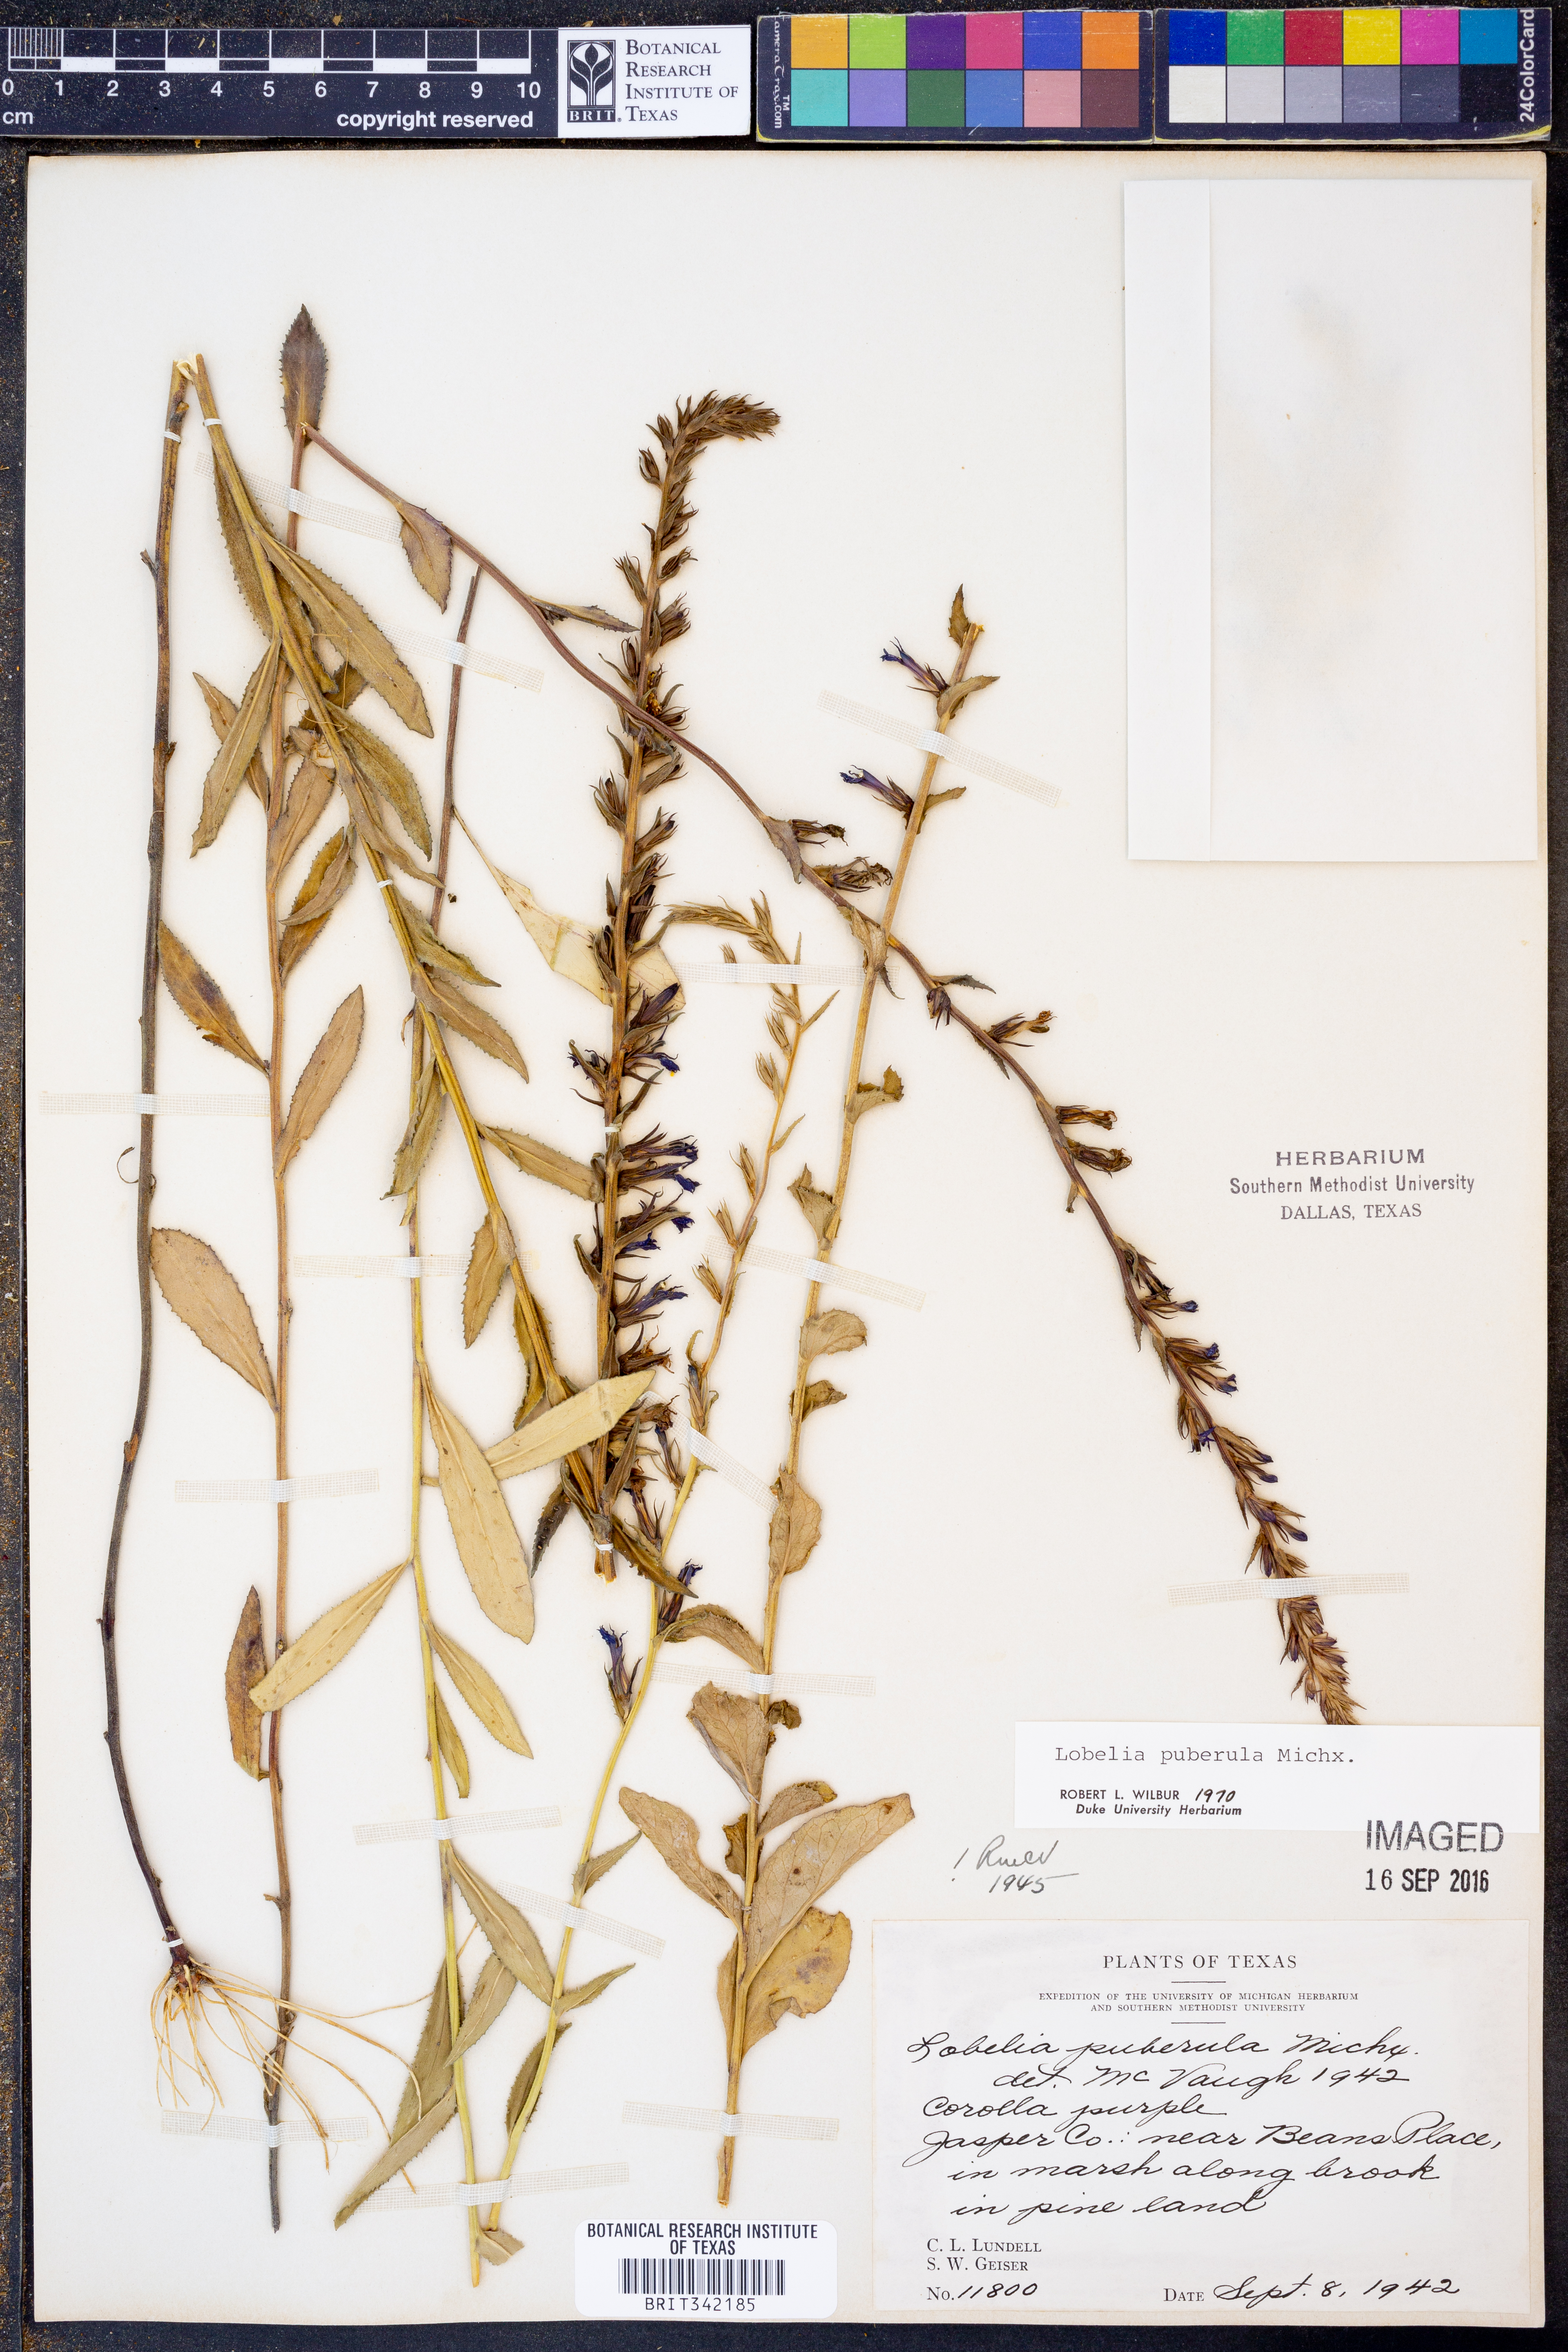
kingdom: Plantae
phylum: Tracheophyta
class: Magnoliopsida
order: Asterales
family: Campanulaceae
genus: Lobelia
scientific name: Lobelia puberula
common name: Purple dewdrop
